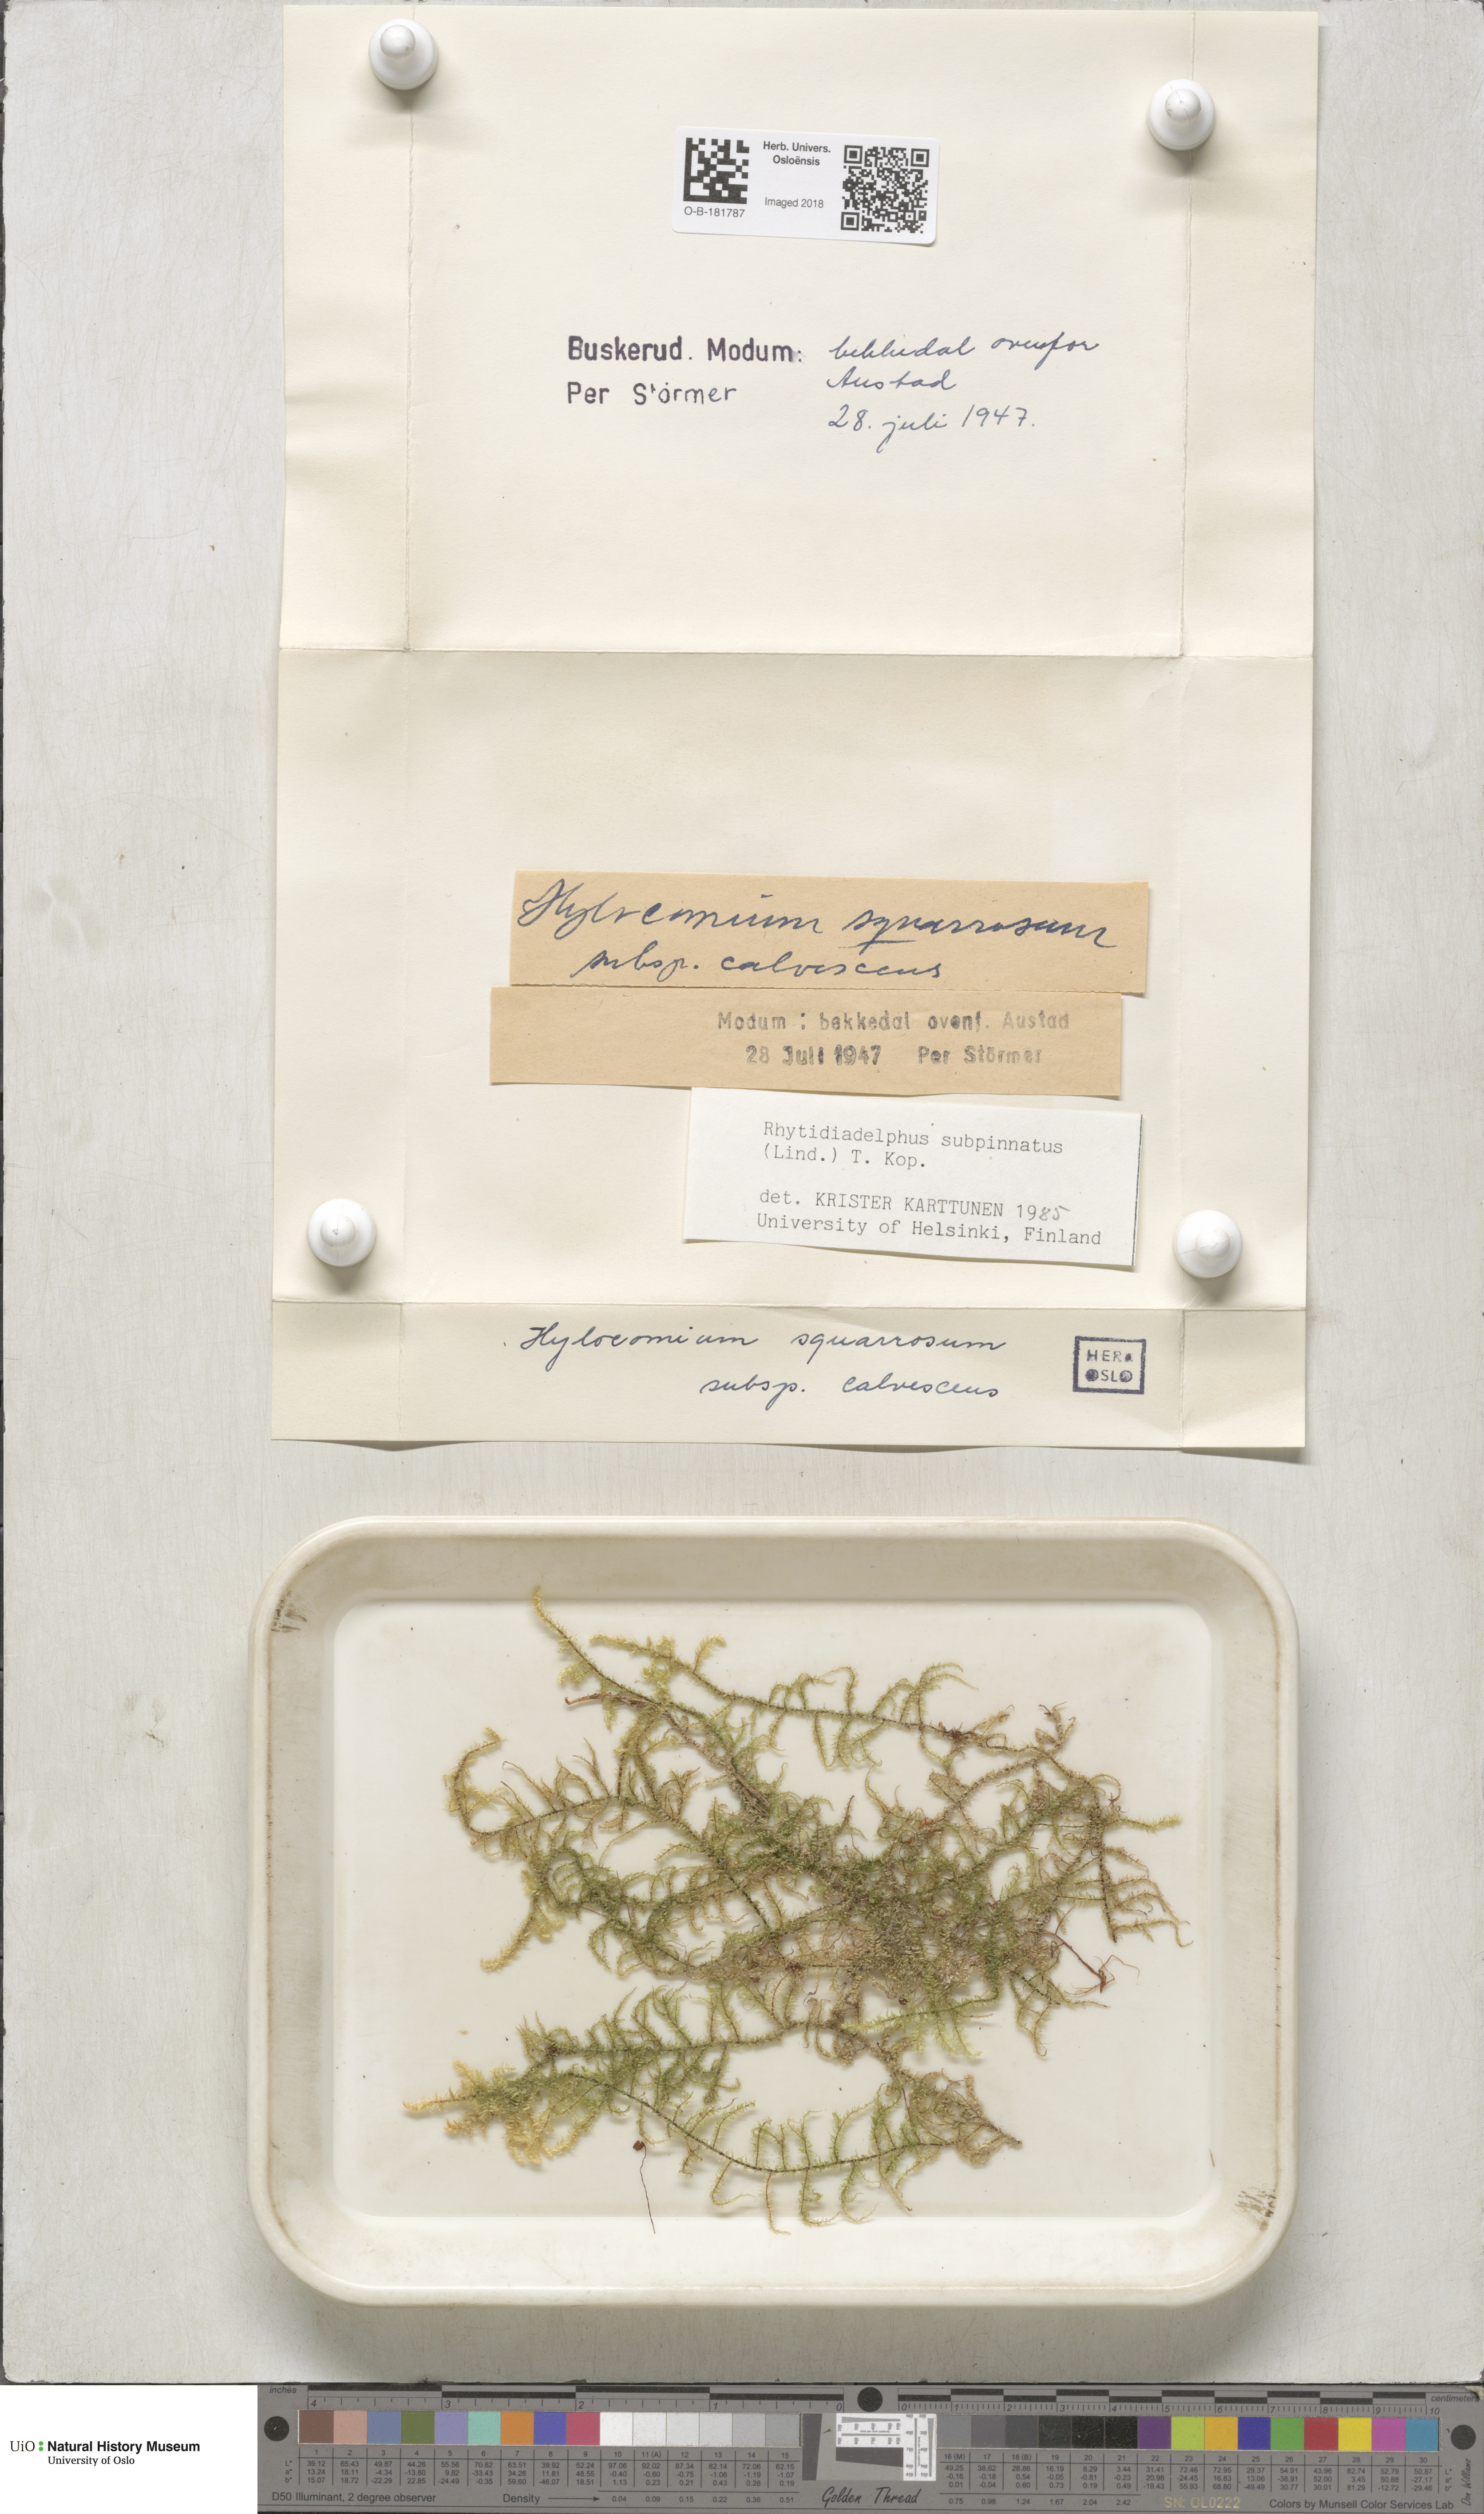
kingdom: Plantae
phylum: Bryophyta
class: Bryopsida
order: Hypnales
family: Hylocomiaceae
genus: Rhytidiadelphus
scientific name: Rhytidiadelphus subpinnatus
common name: Subpinnate gooseneck moss
